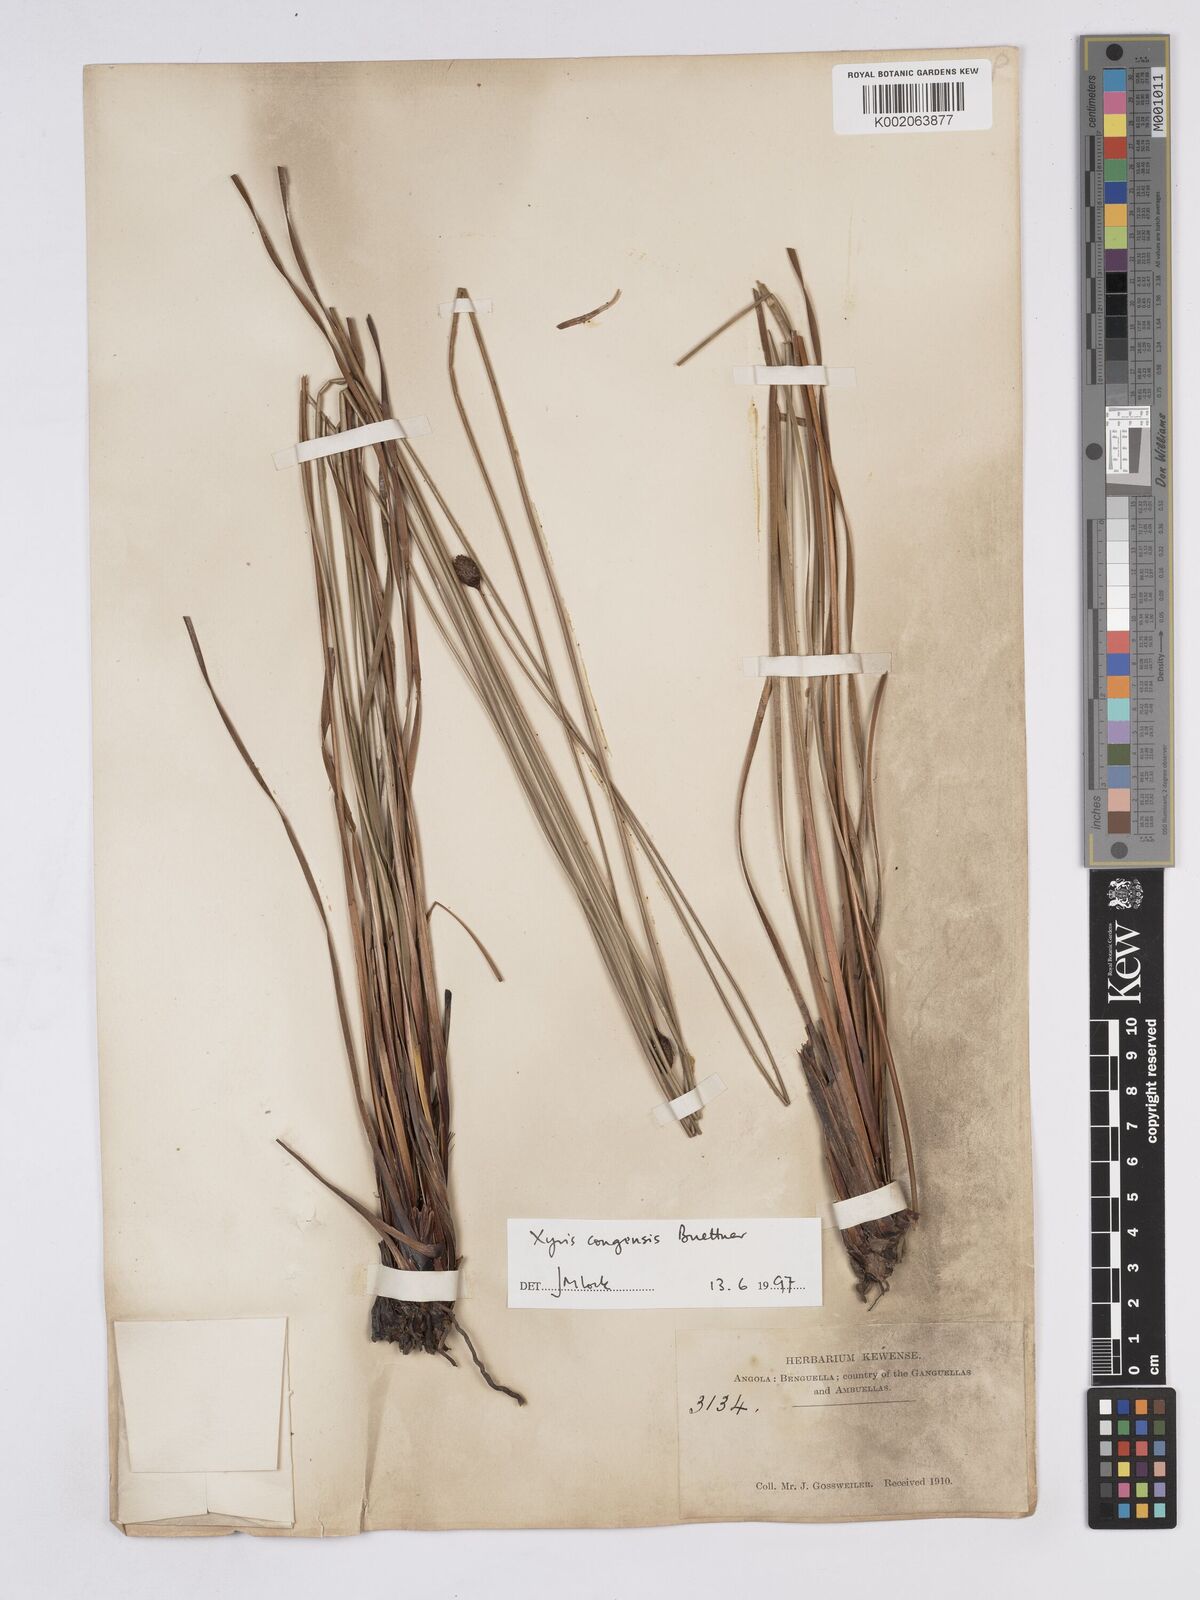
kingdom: Plantae
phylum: Tracheophyta
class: Liliopsida
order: Poales
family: Xyridaceae
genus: Xyris
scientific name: Xyris congensis
